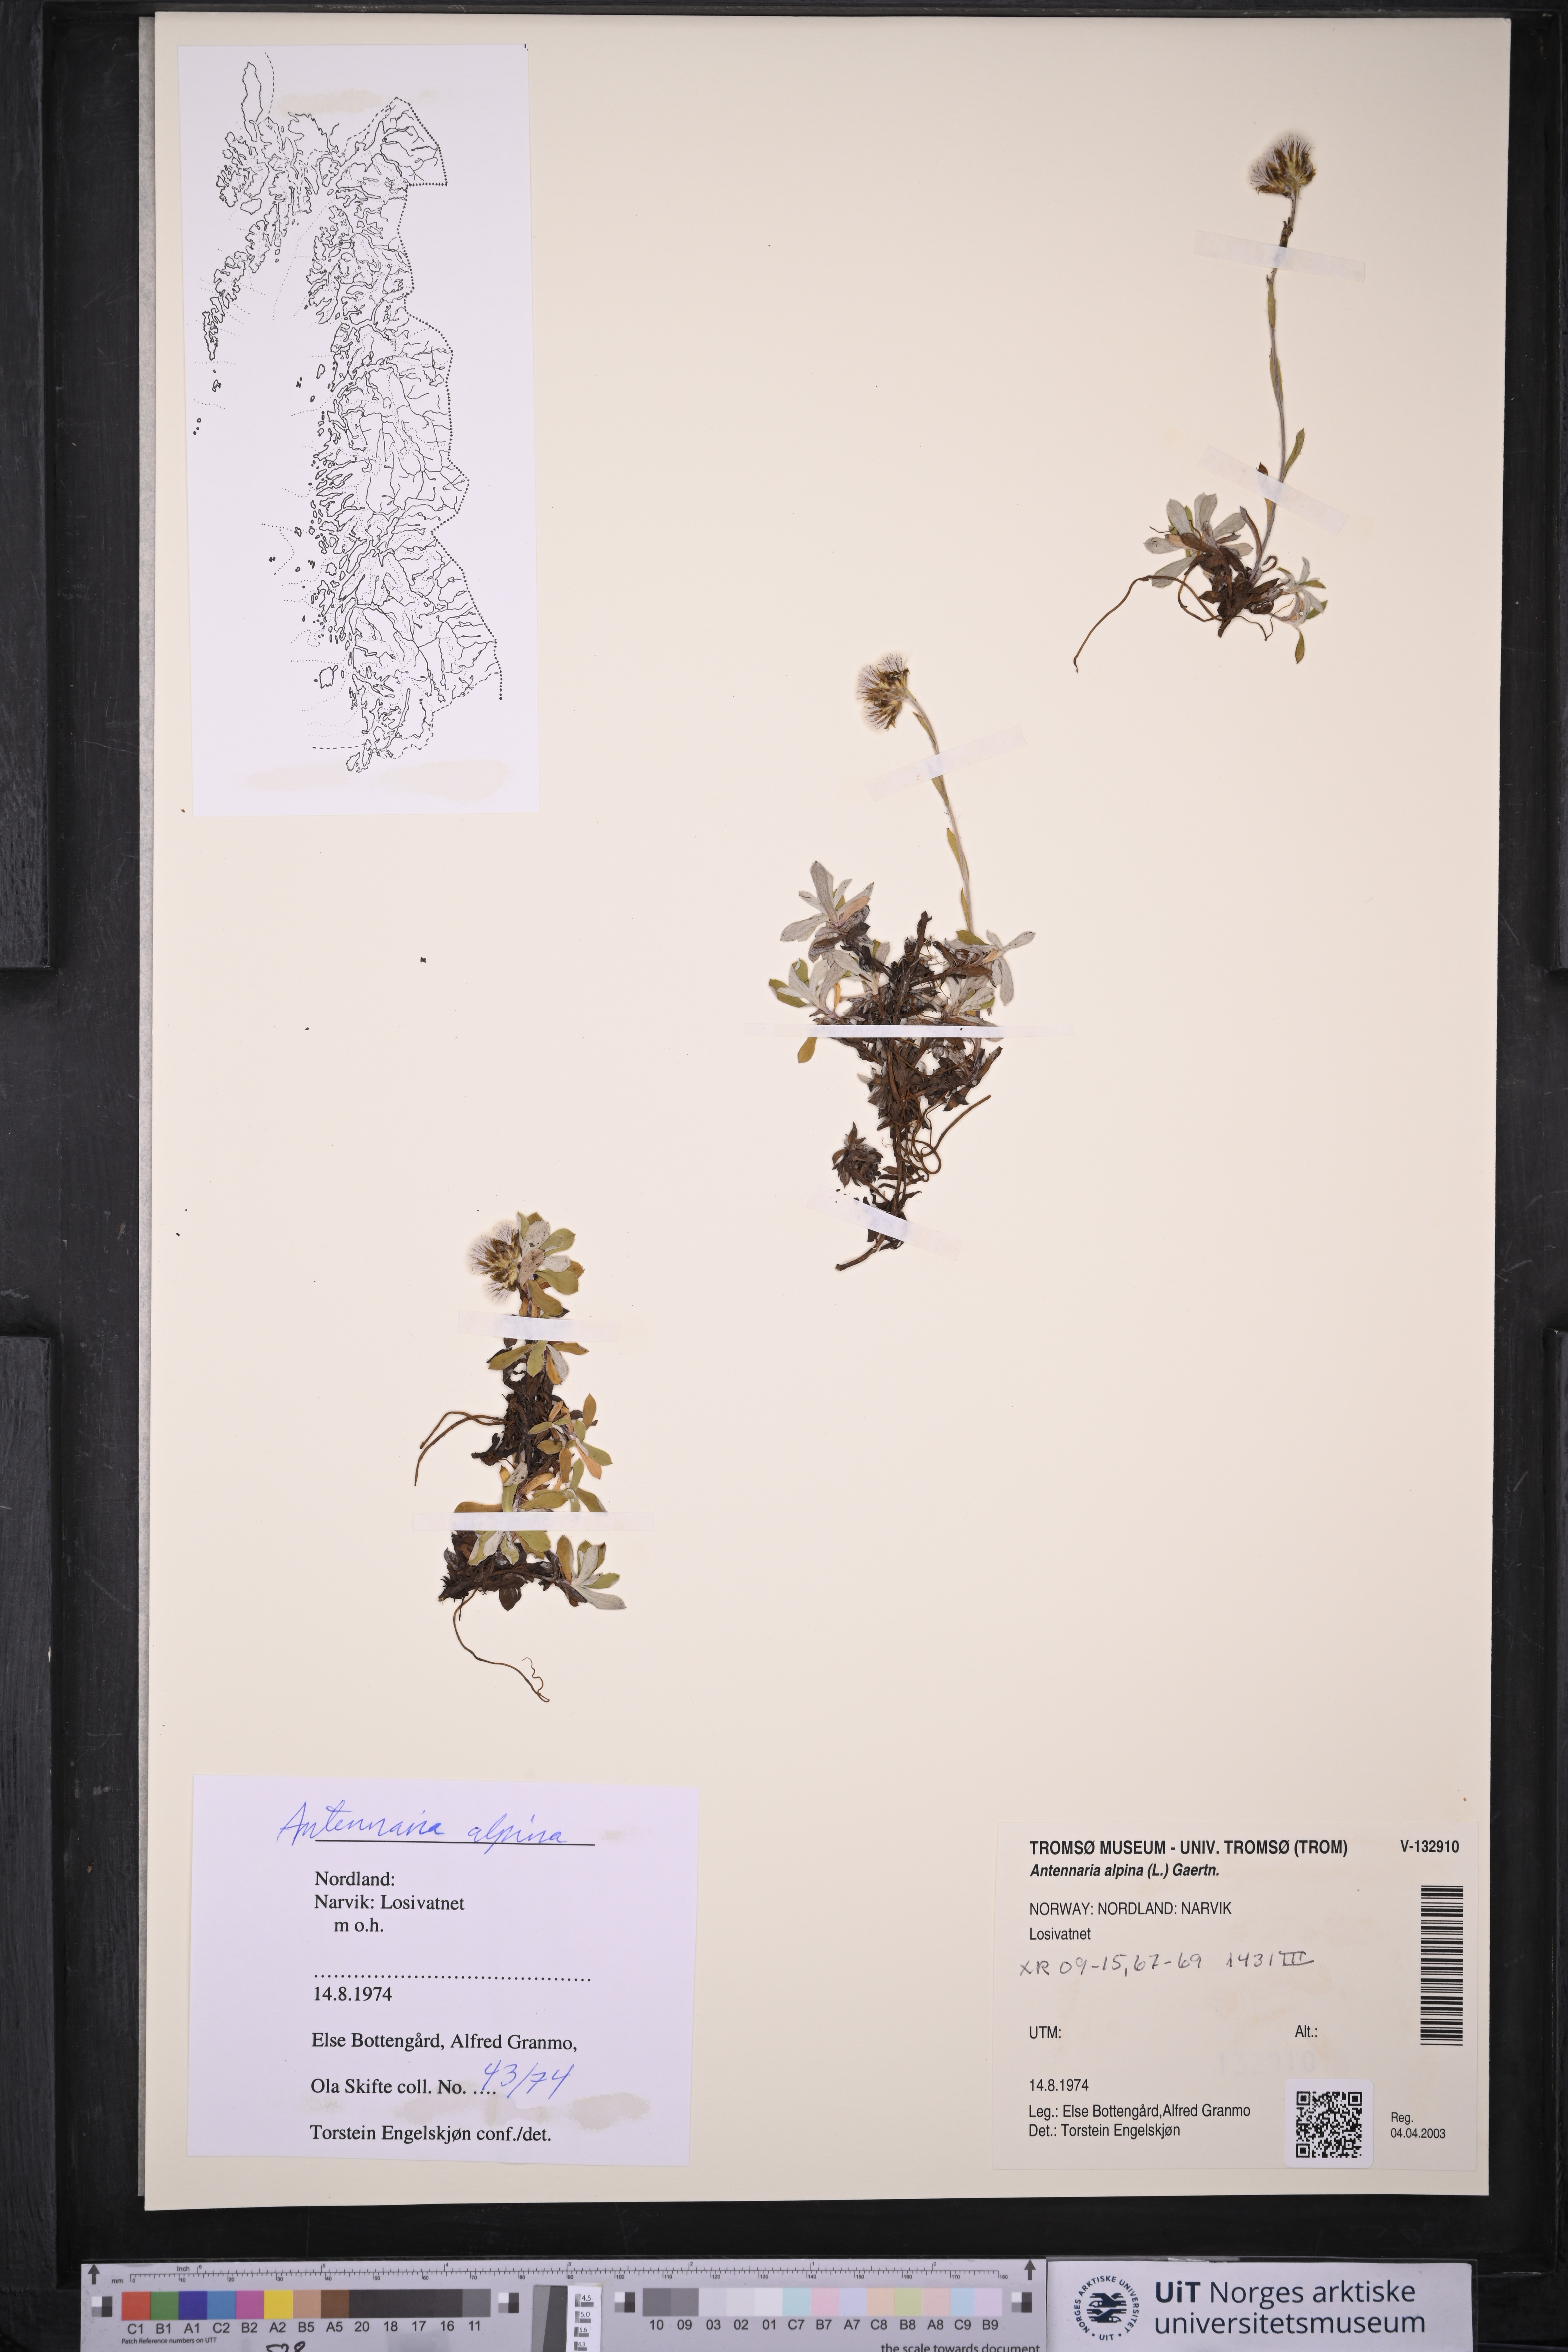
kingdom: Plantae
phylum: Tracheophyta
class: Magnoliopsida
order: Asterales
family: Asteraceae
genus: Antennaria
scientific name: Antennaria alpina
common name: Alpine pussytoes
